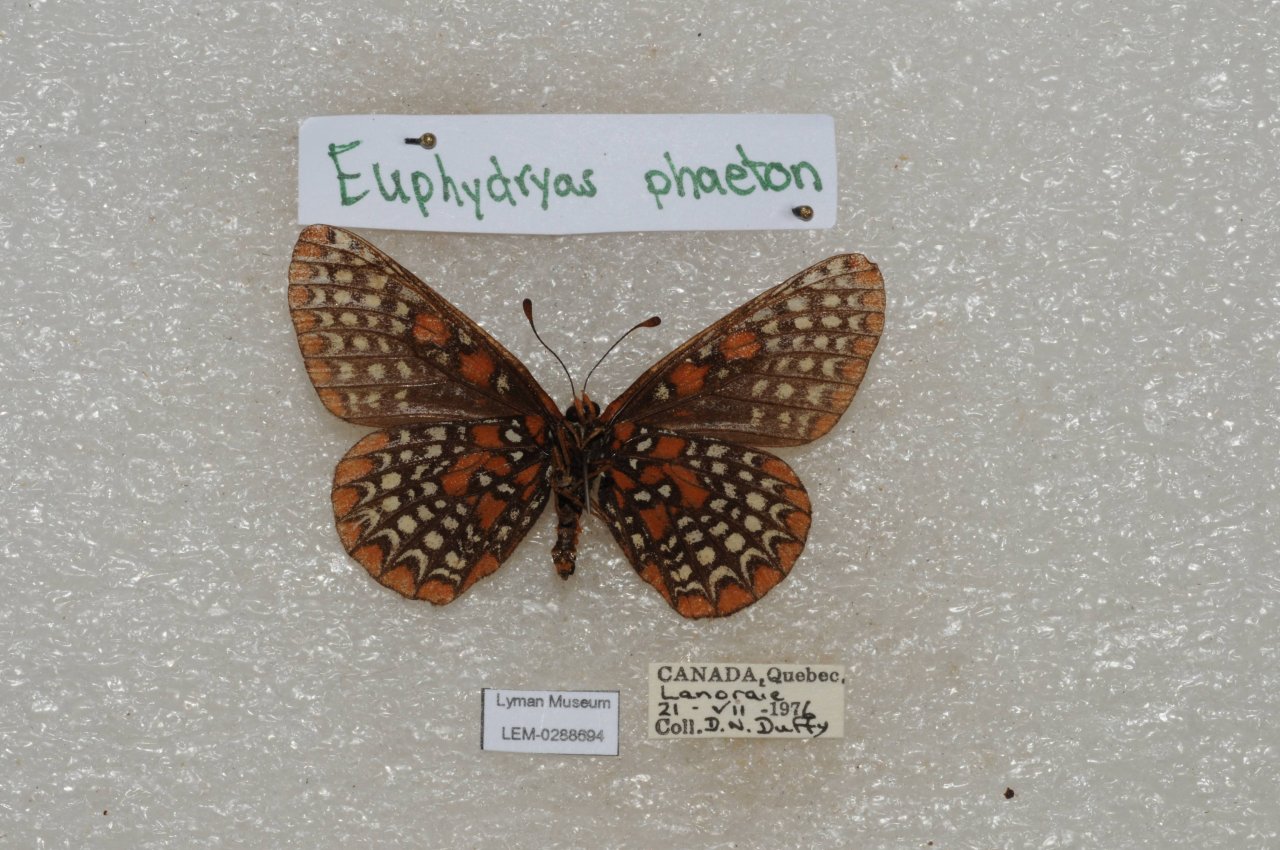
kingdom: Animalia
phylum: Arthropoda
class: Insecta
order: Lepidoptera
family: Nymphalidae
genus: Euphydryas
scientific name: Euphydryas phaeton
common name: Baltimore Checkerspot
